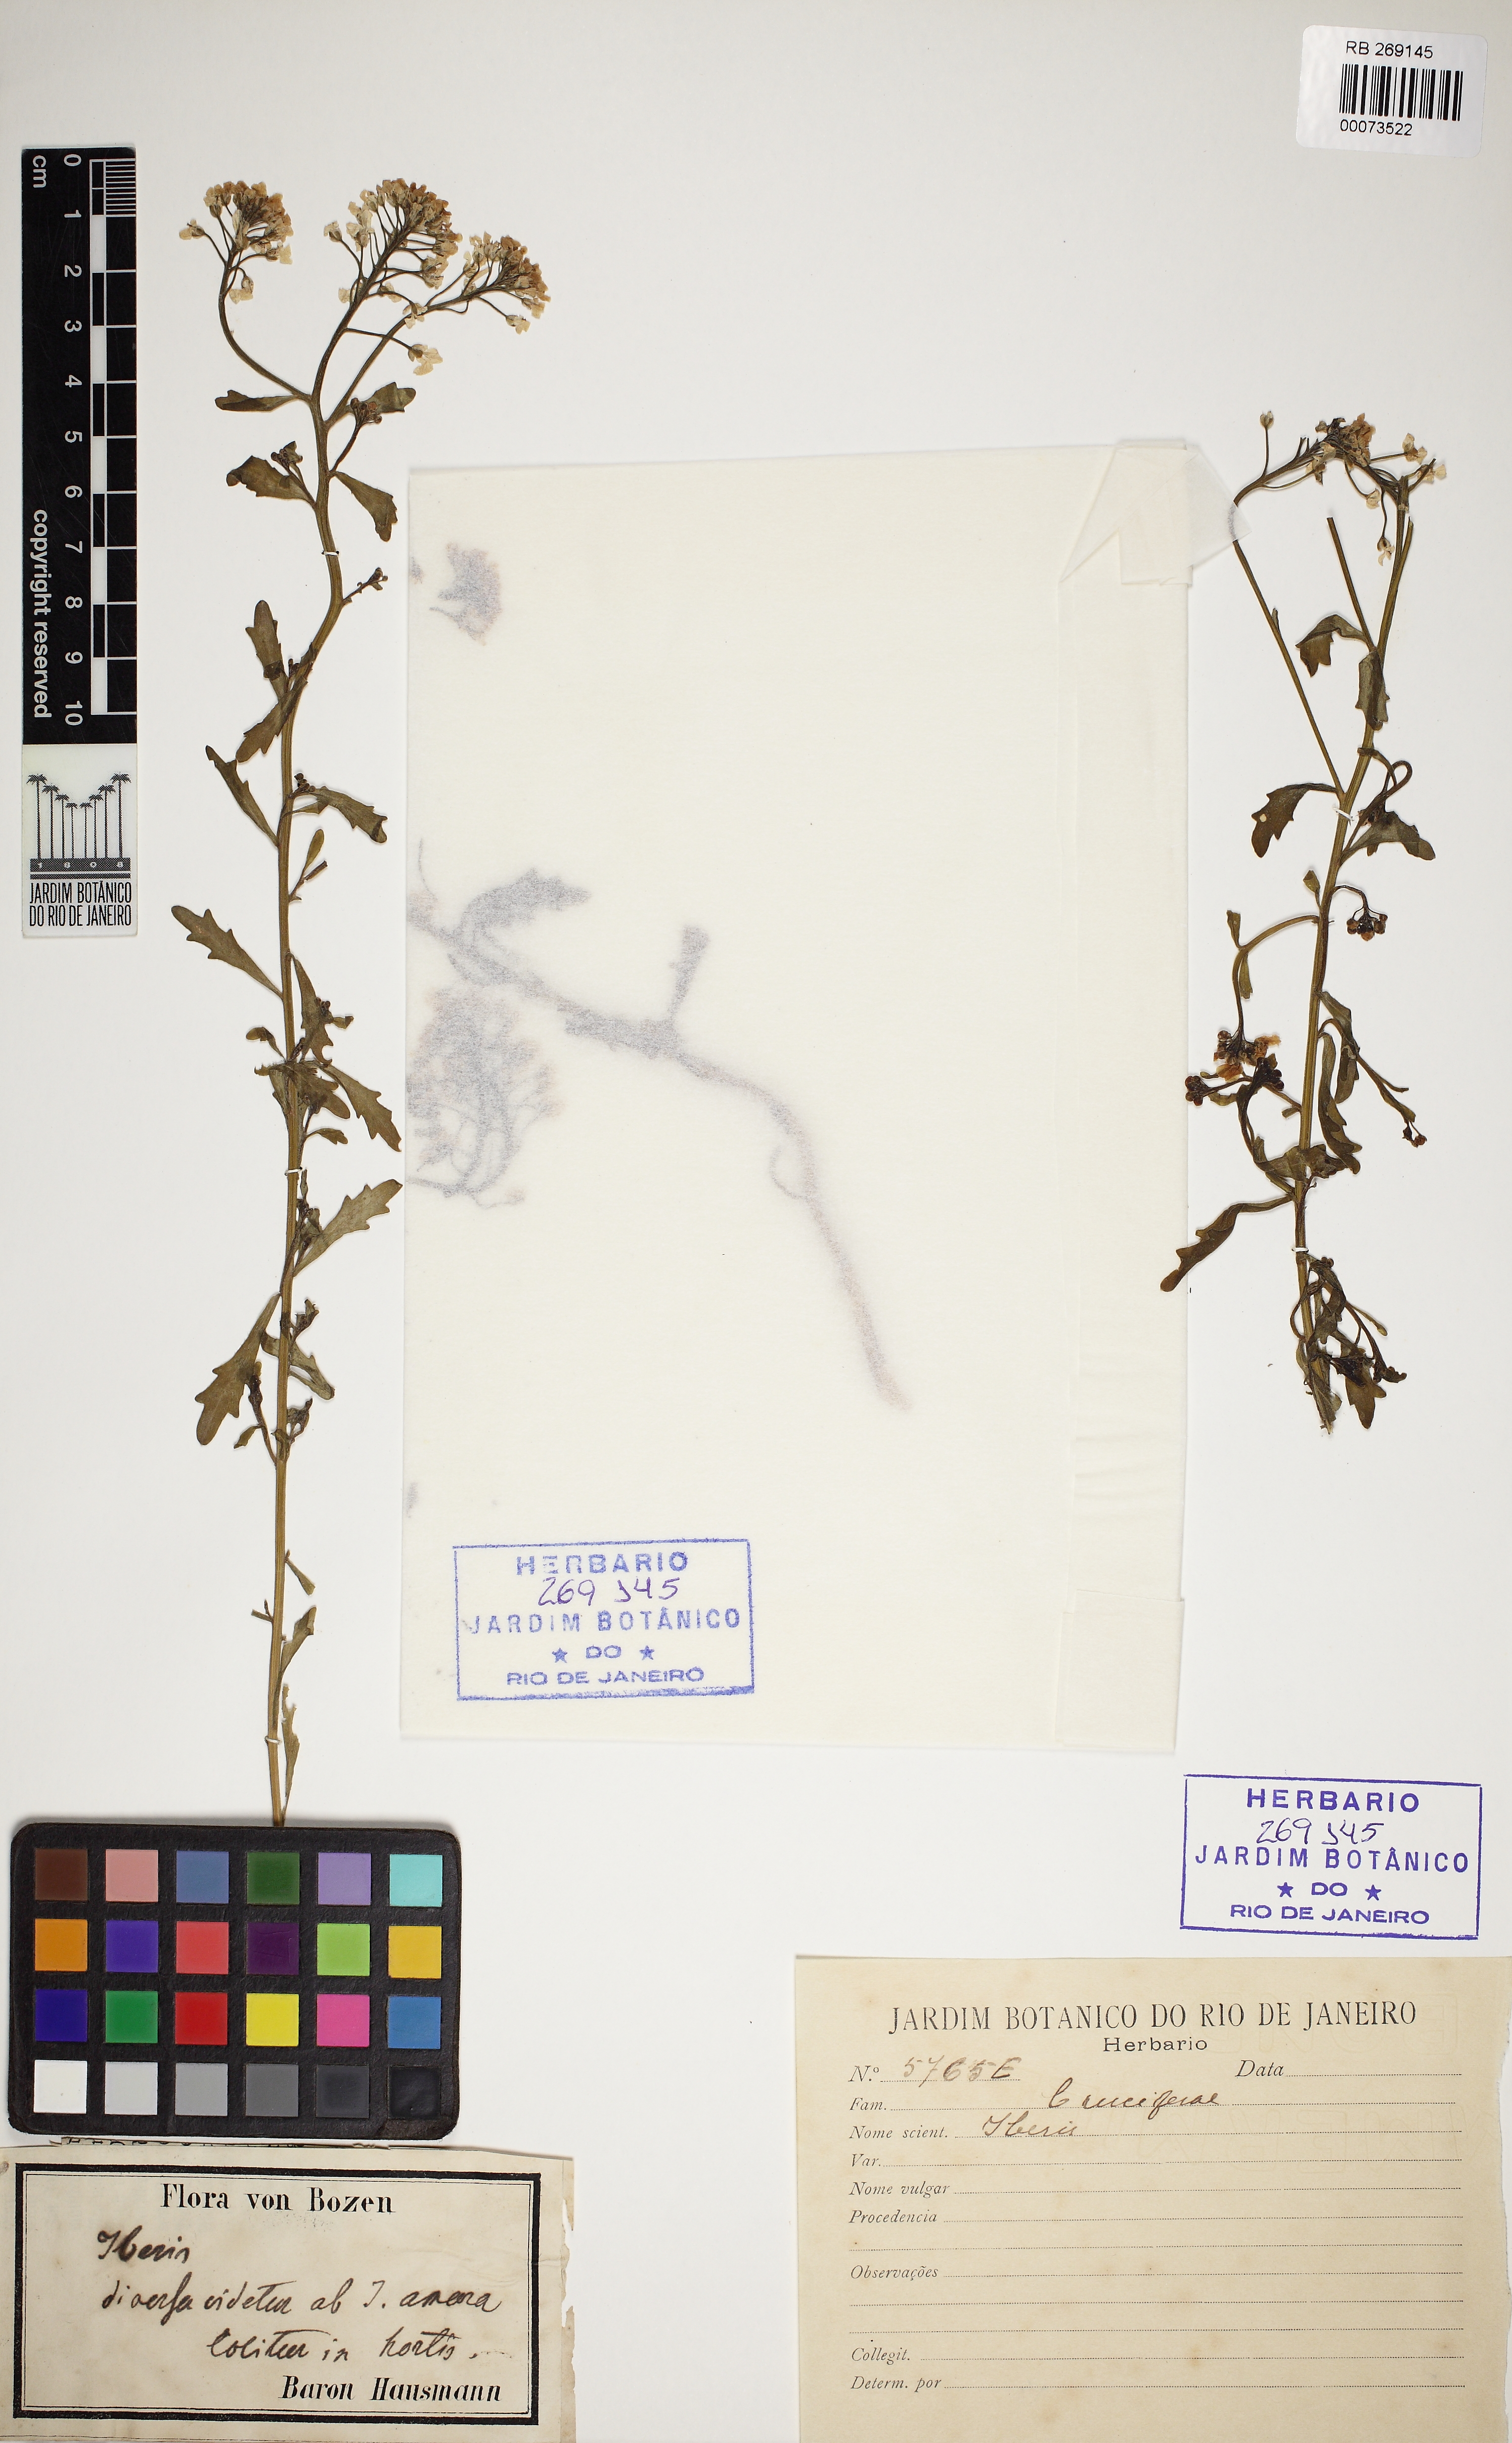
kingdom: Plantae
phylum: Tracheophyta
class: Magnoliopsida
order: Brassicales
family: Brassicaceae
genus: Iberis
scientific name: Iberis
